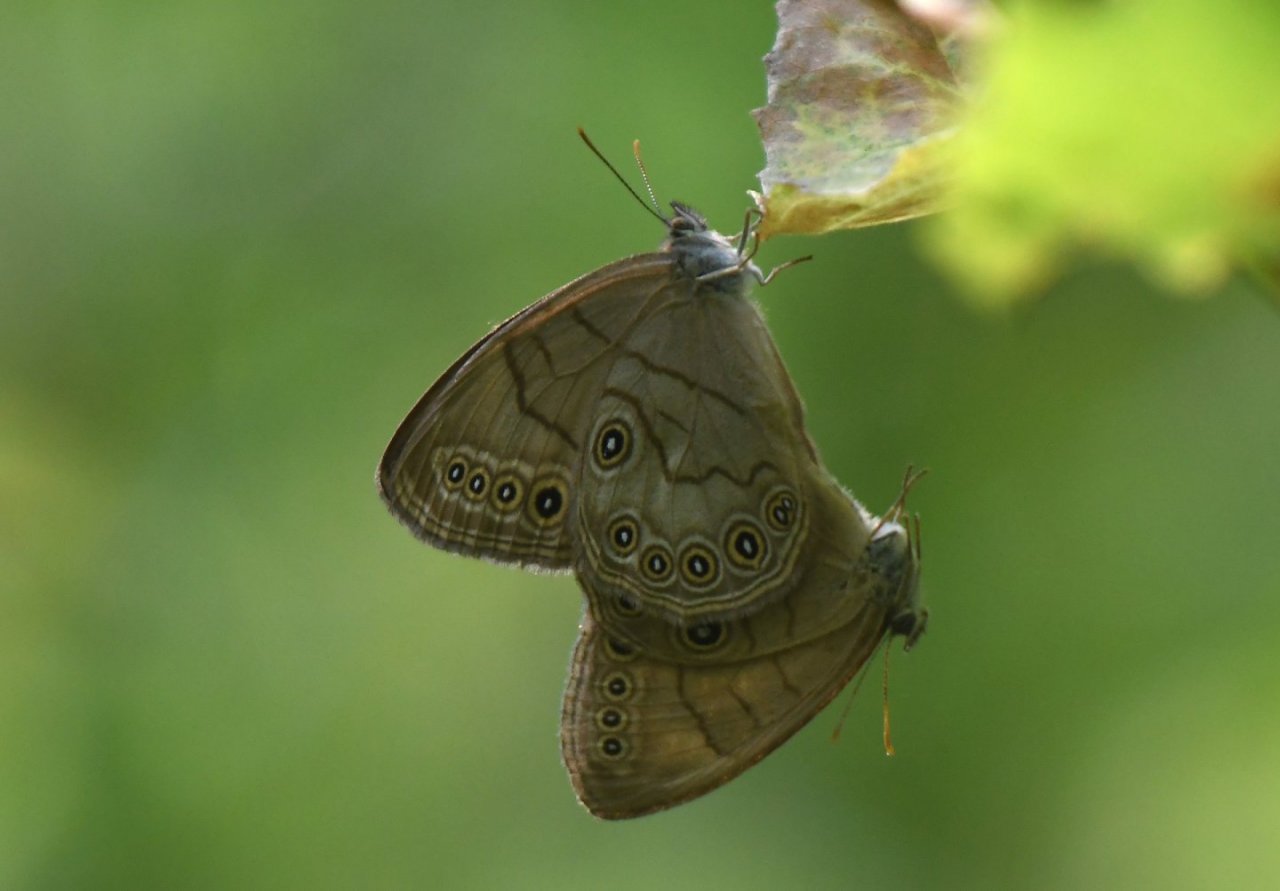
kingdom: Animalia
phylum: Arthropoda
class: Insecta
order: Lepidoptera
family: Nymphalidae
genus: Lethe
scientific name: Lethe eurydice
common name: Appalachian Eyed Brown
